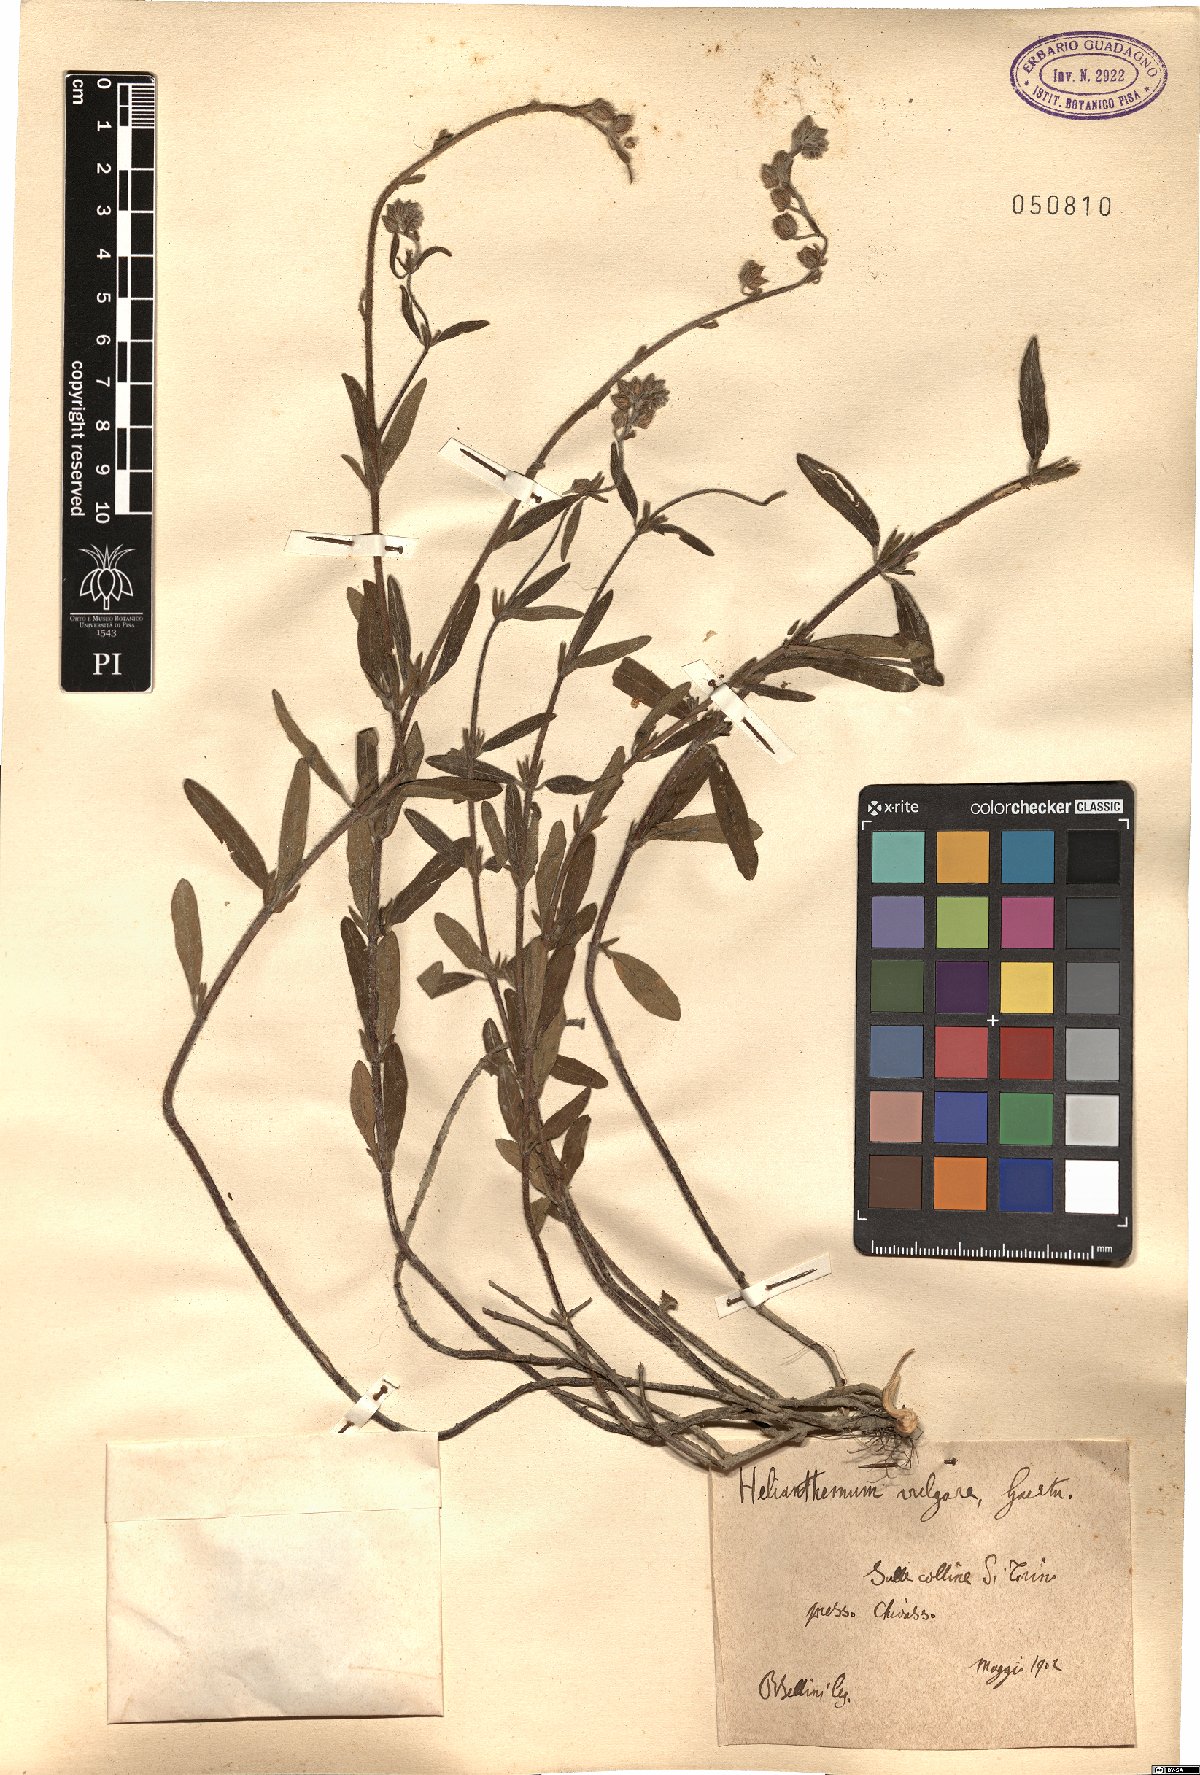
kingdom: Plantae
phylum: Tracheophyta
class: Magnoliopsida
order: Malvales
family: Cistaceae
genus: Helianthemum
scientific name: Helianthemum nummularium
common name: Common rock-rose
